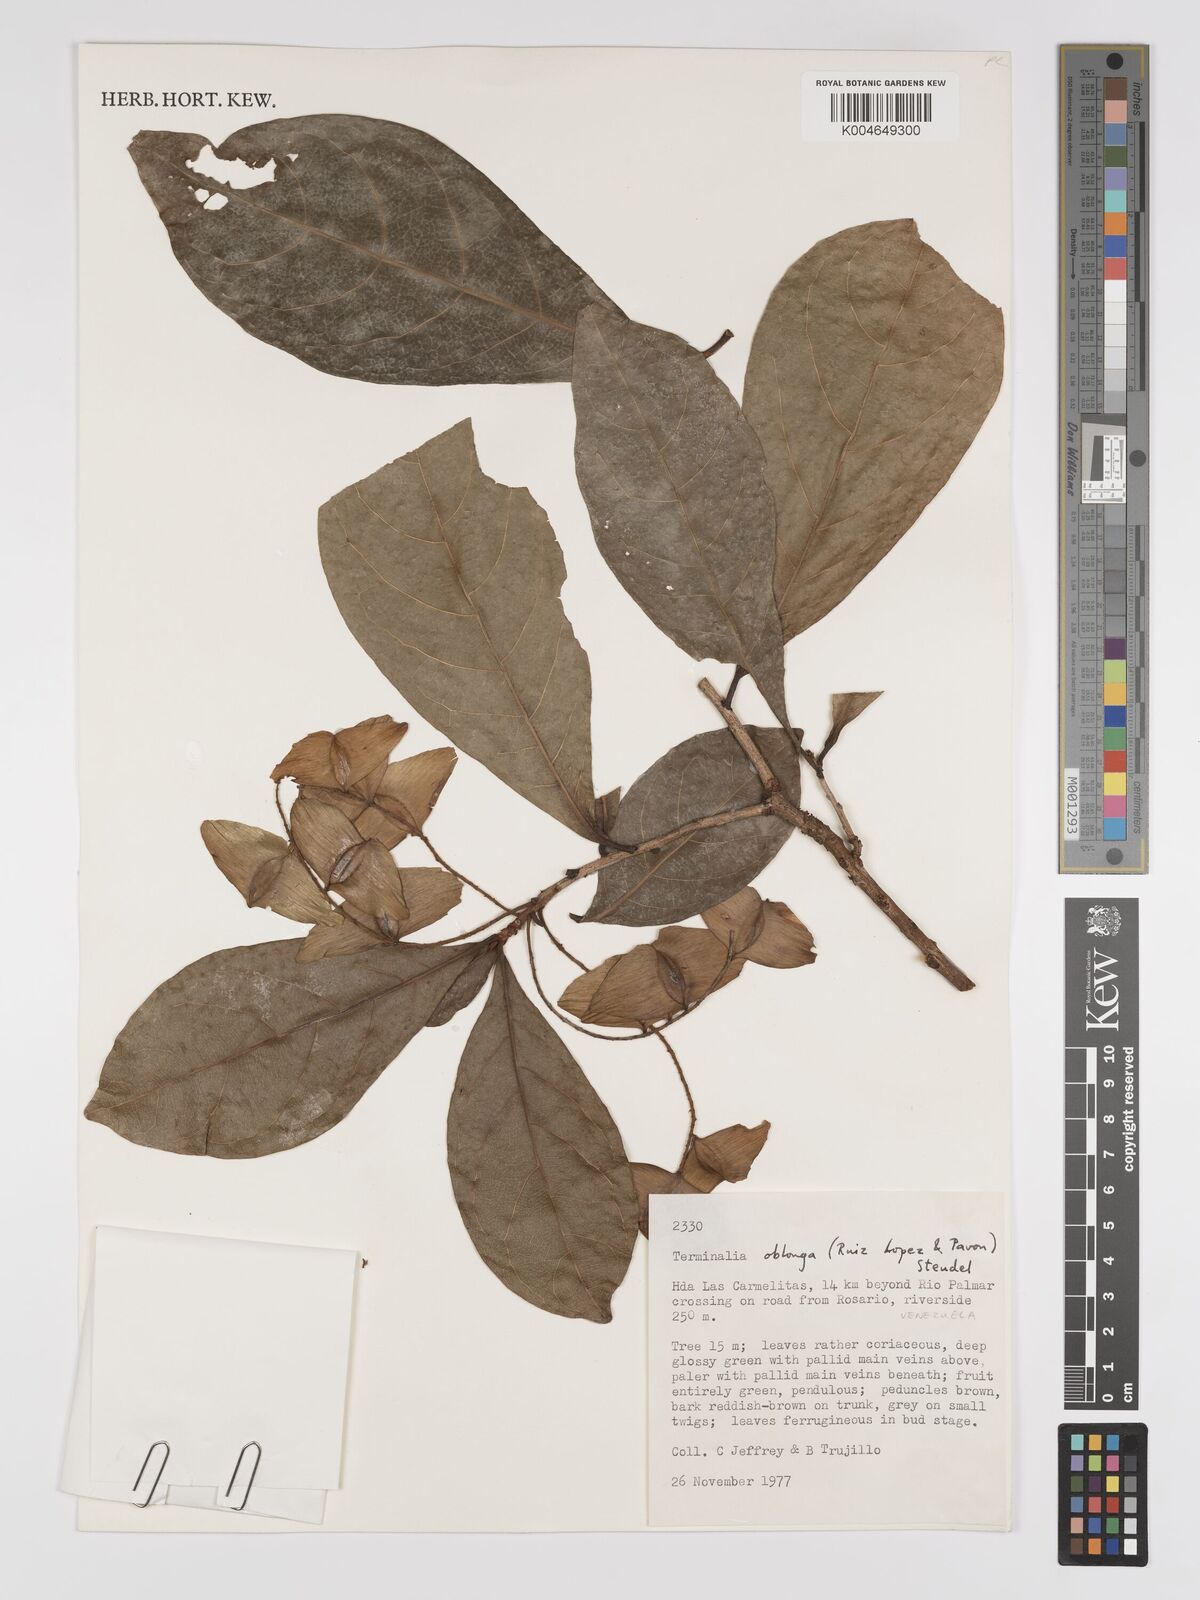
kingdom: Plantae
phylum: Tracheophyta
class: Magnoliopsida
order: Myrtales
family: Combretaceae
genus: Terminalia
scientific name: Terminalia oblonga
